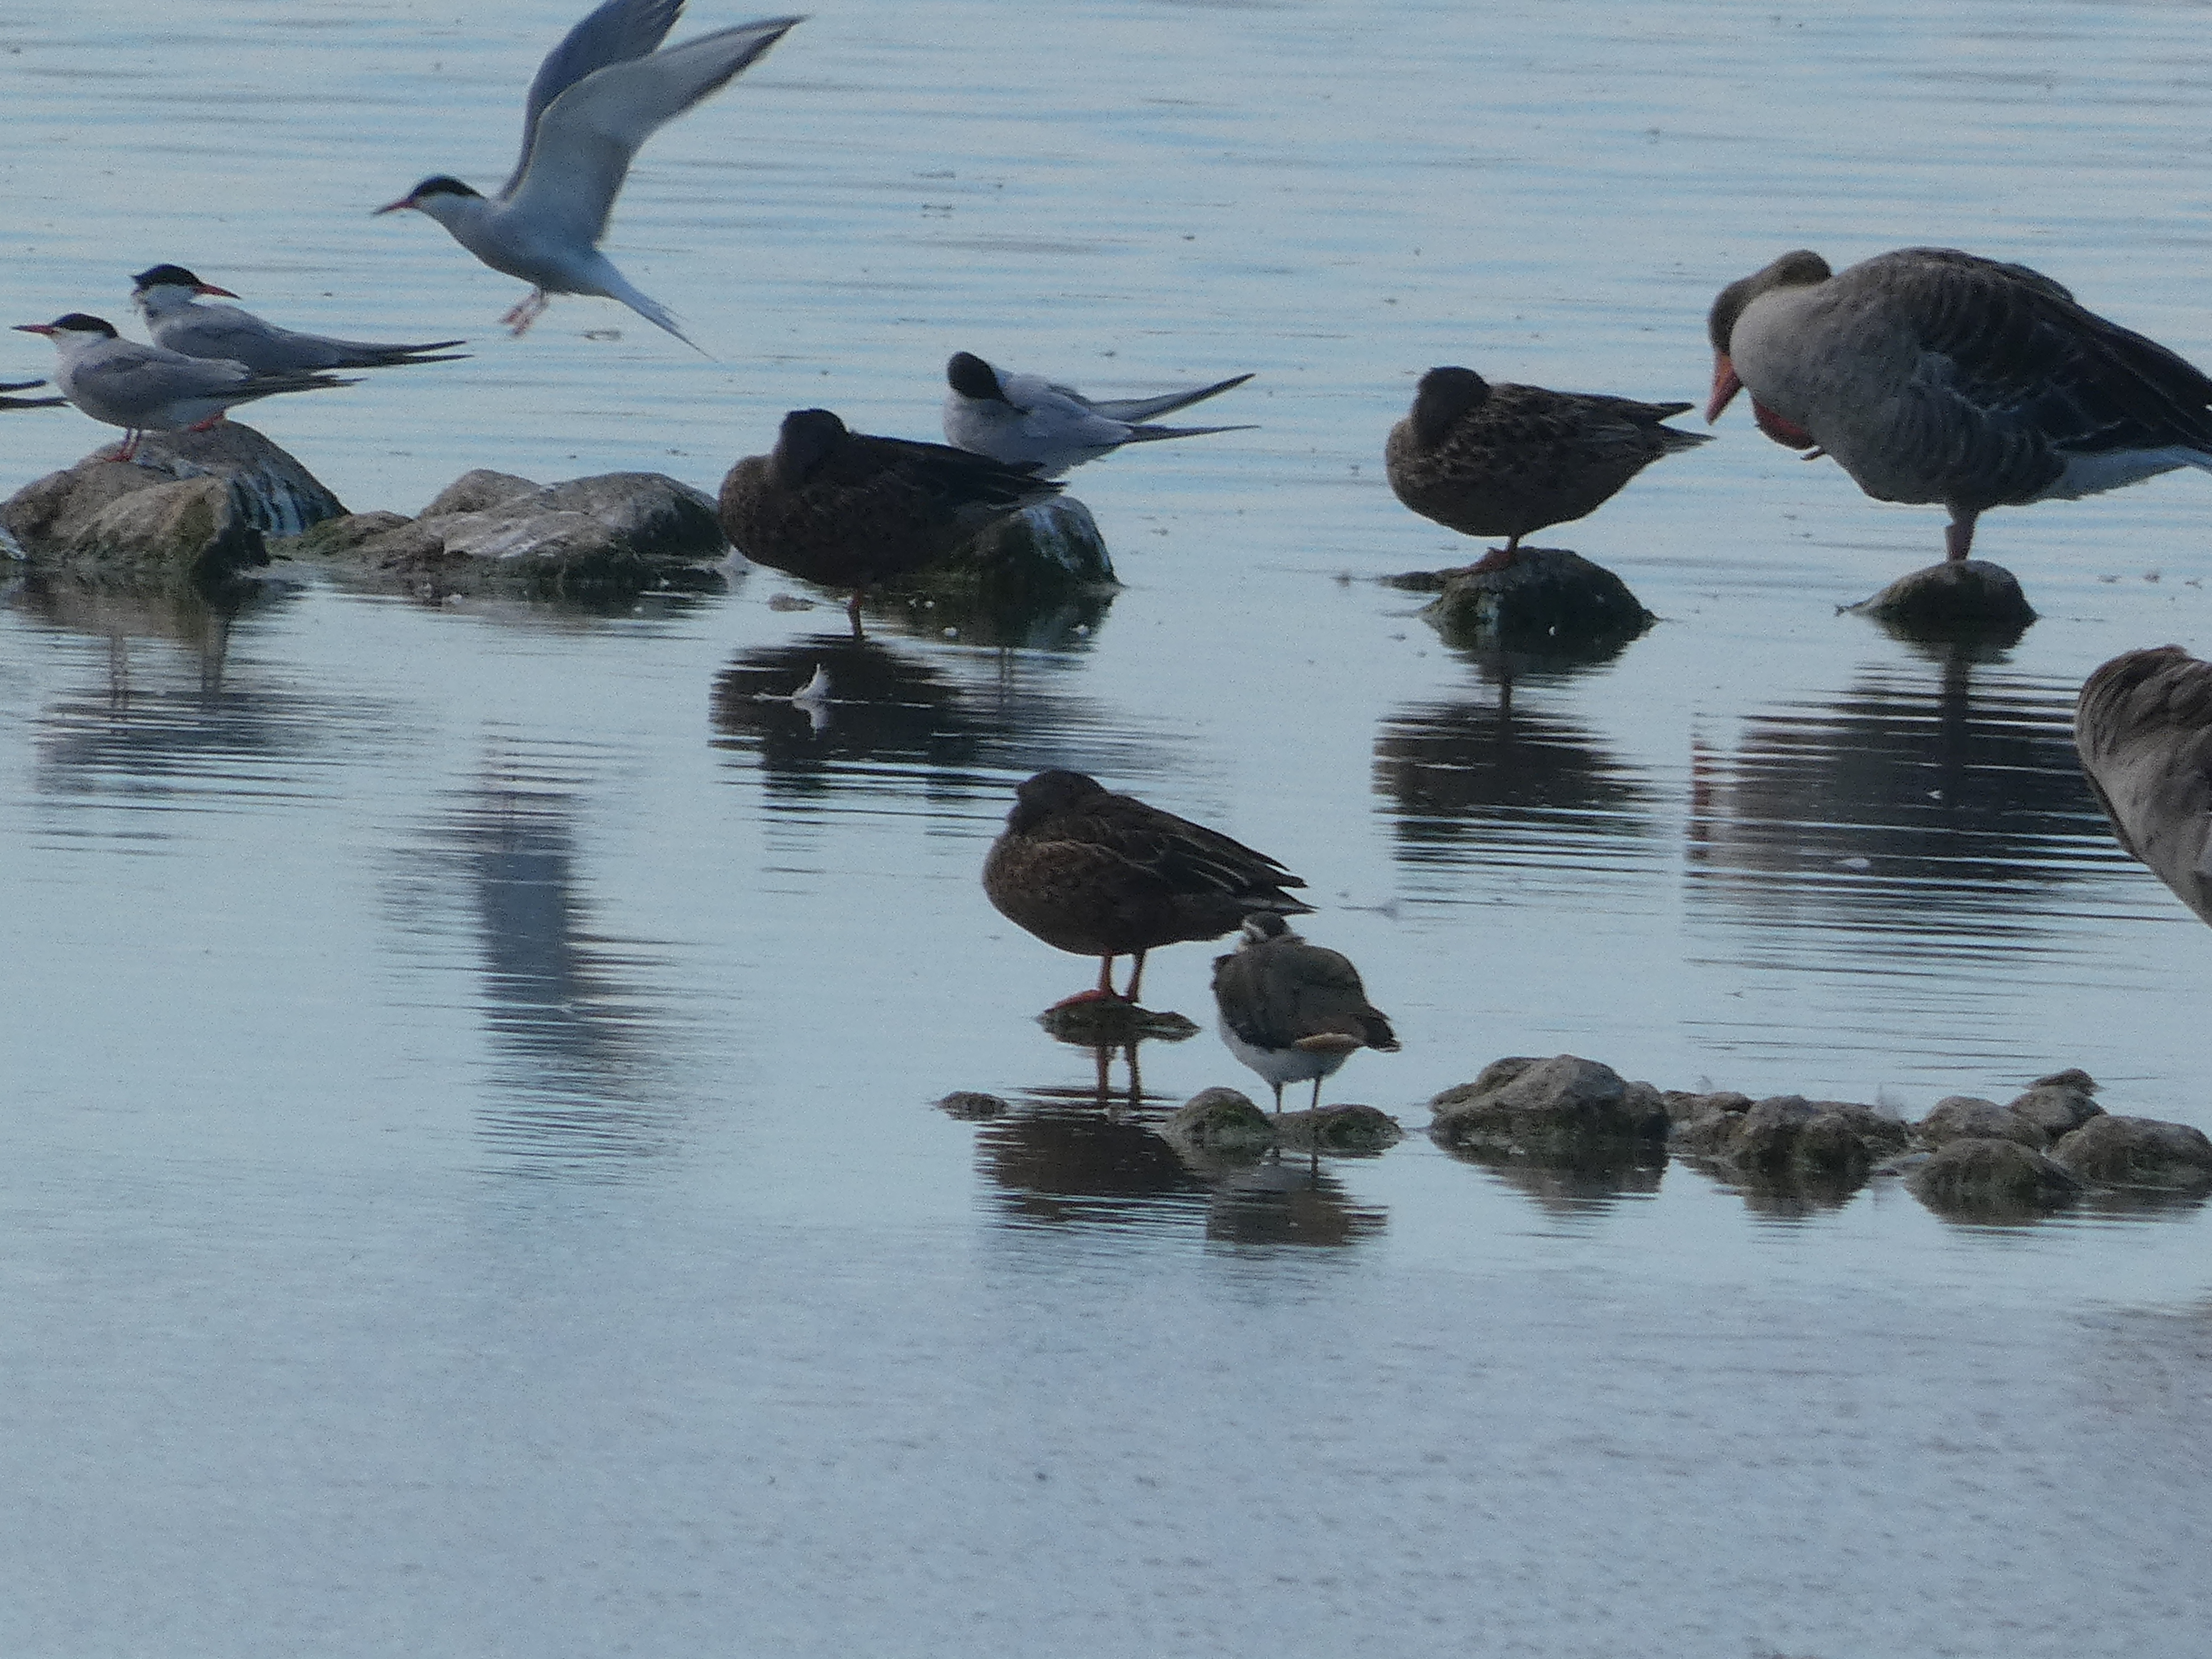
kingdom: Animalia
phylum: Chordata
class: Aves
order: Charadriiformes
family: Laridae
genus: Sterna
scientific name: Sterna hirundo
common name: Fjordterne
